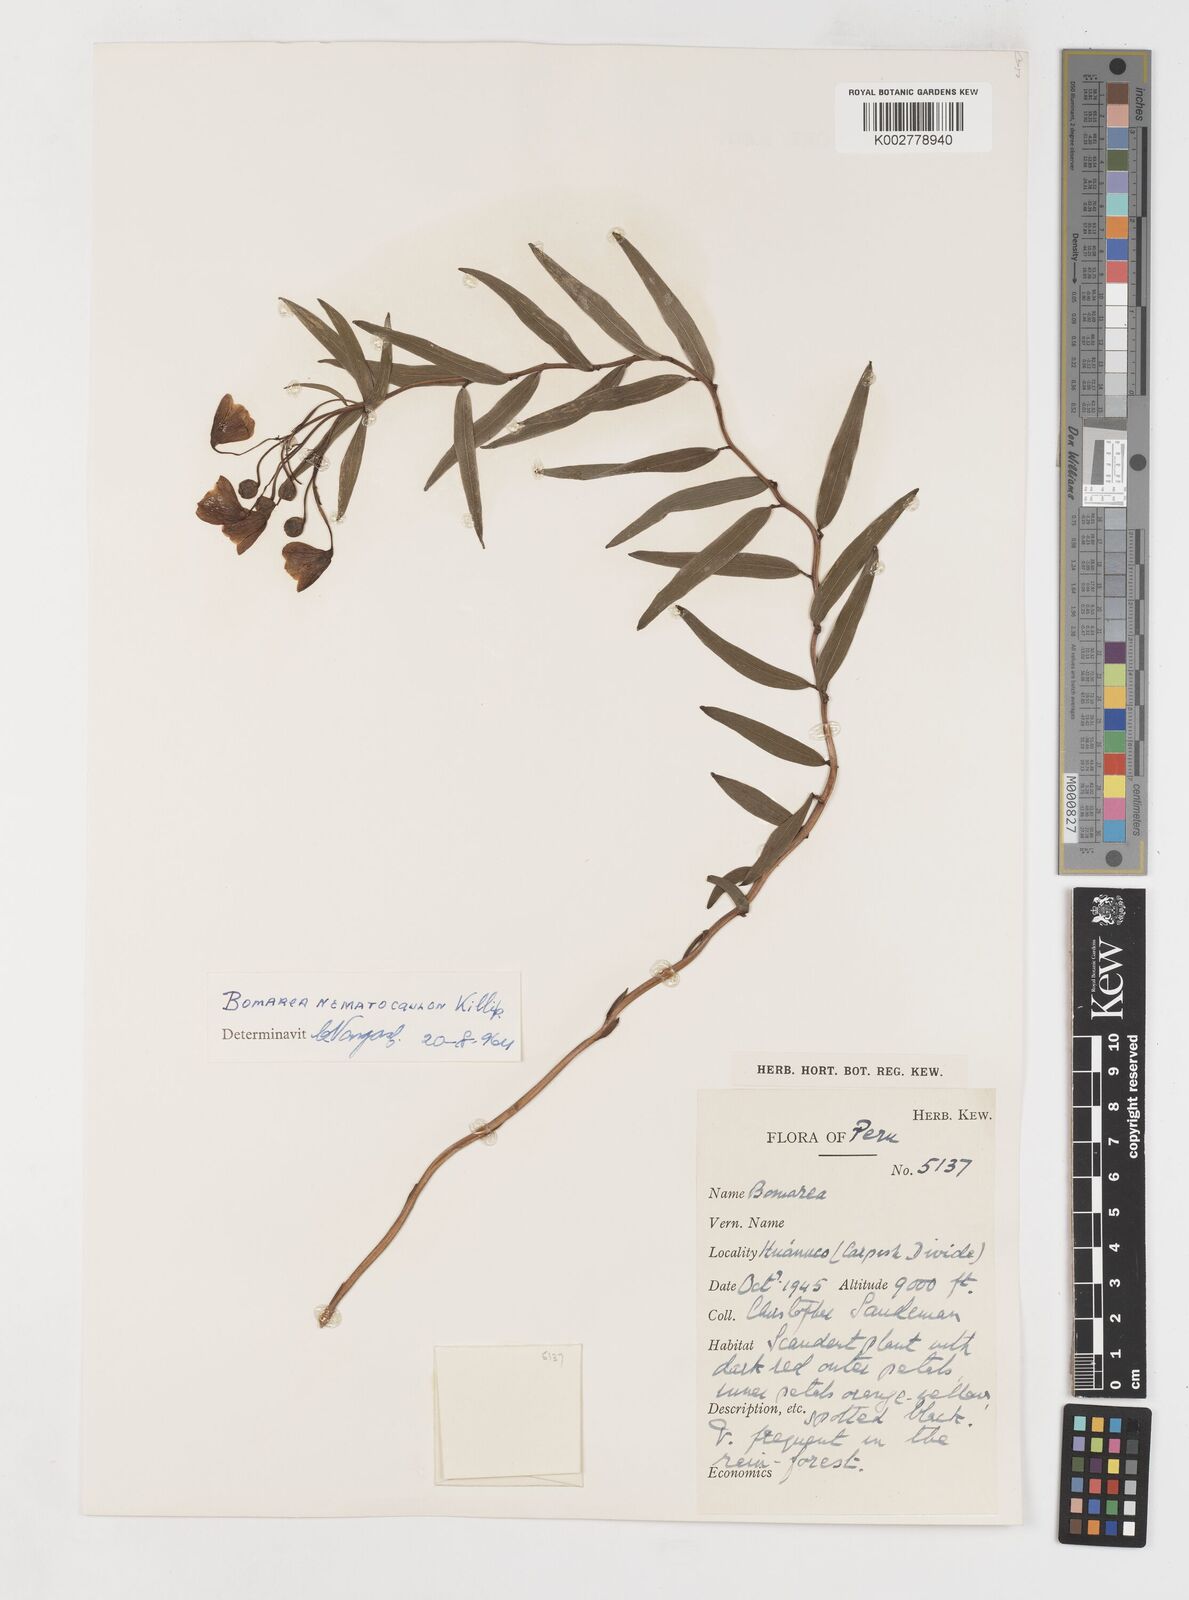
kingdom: Plantae
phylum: Tracheophyta
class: Liliopsida
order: Liliales
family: Alstroemeriaceae
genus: Bomarea
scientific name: Bomarea nematocaulon
